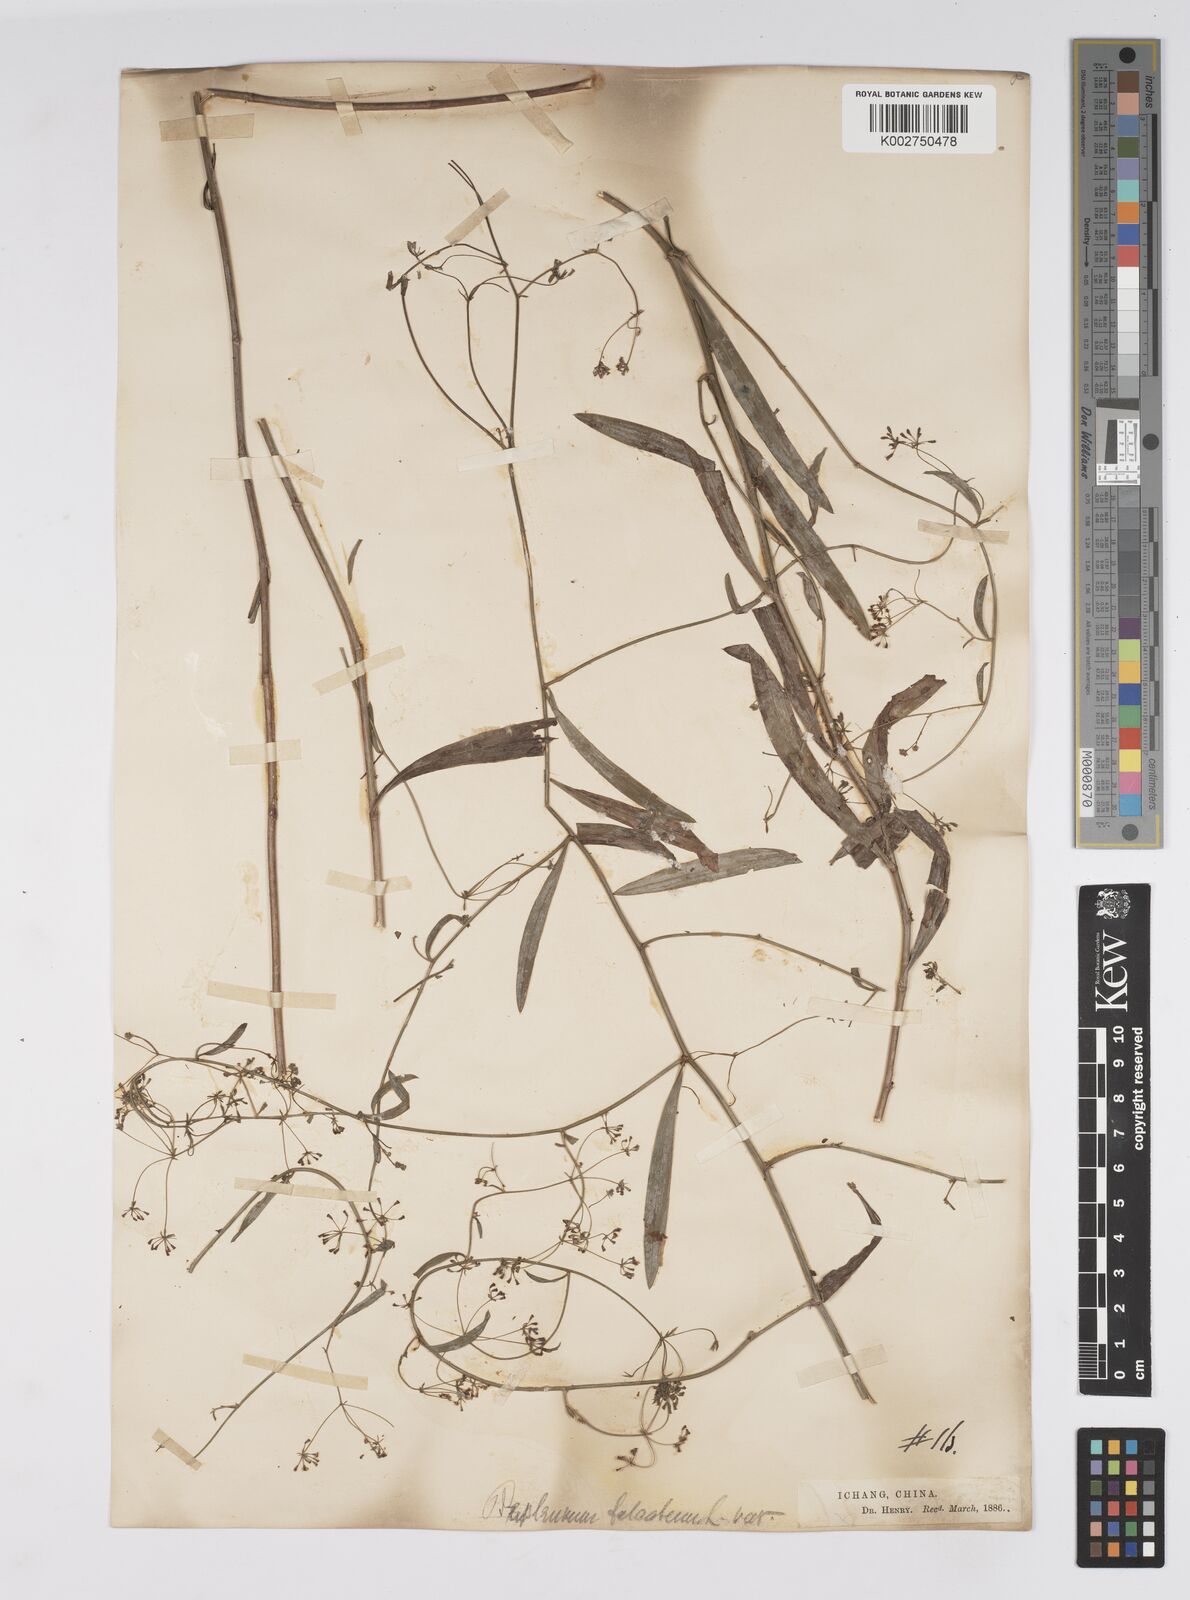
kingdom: Plantae
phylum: Tracheophyta
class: Magnoliopsida
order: Apiales
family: Apiaceae
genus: Bupleurum
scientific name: Bupleurum krylovianum
